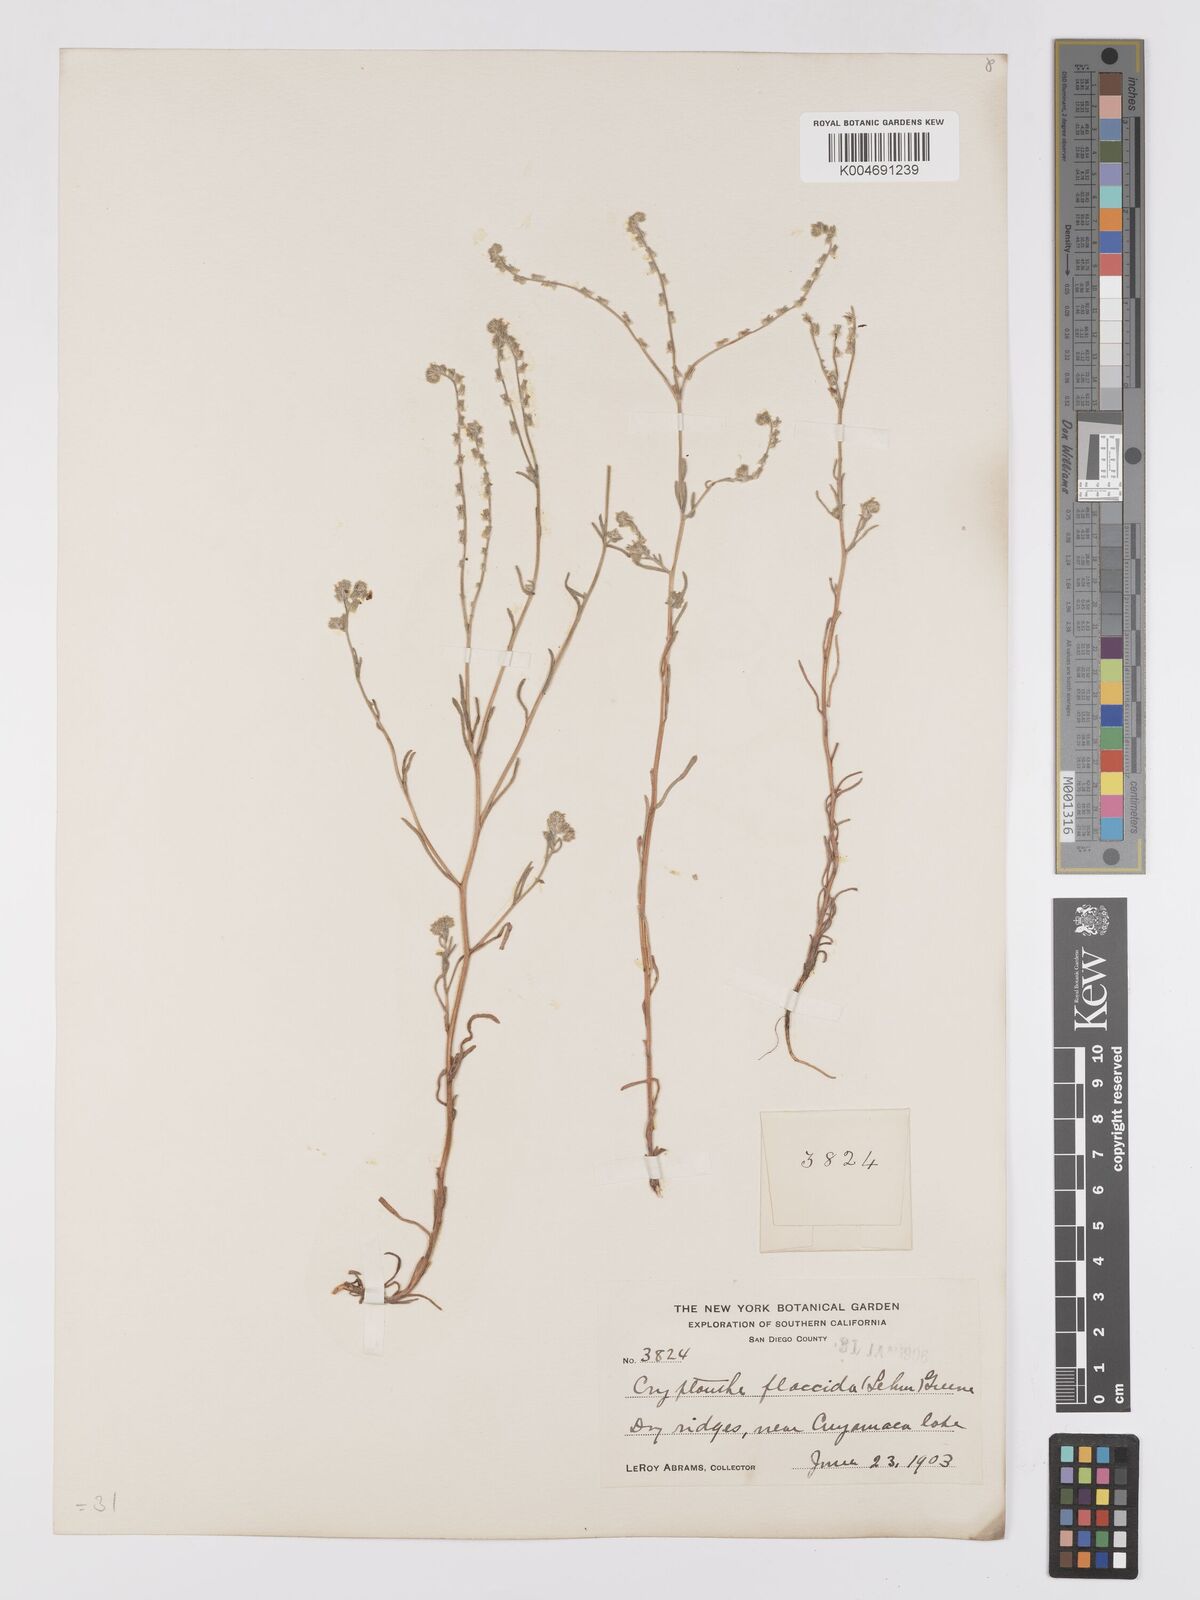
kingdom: Plantae
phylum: Tracheophyta
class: Magnoliopsida
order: Boraginales
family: Boraginaceae
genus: Cryptantha
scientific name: Cryptantha flaccida
